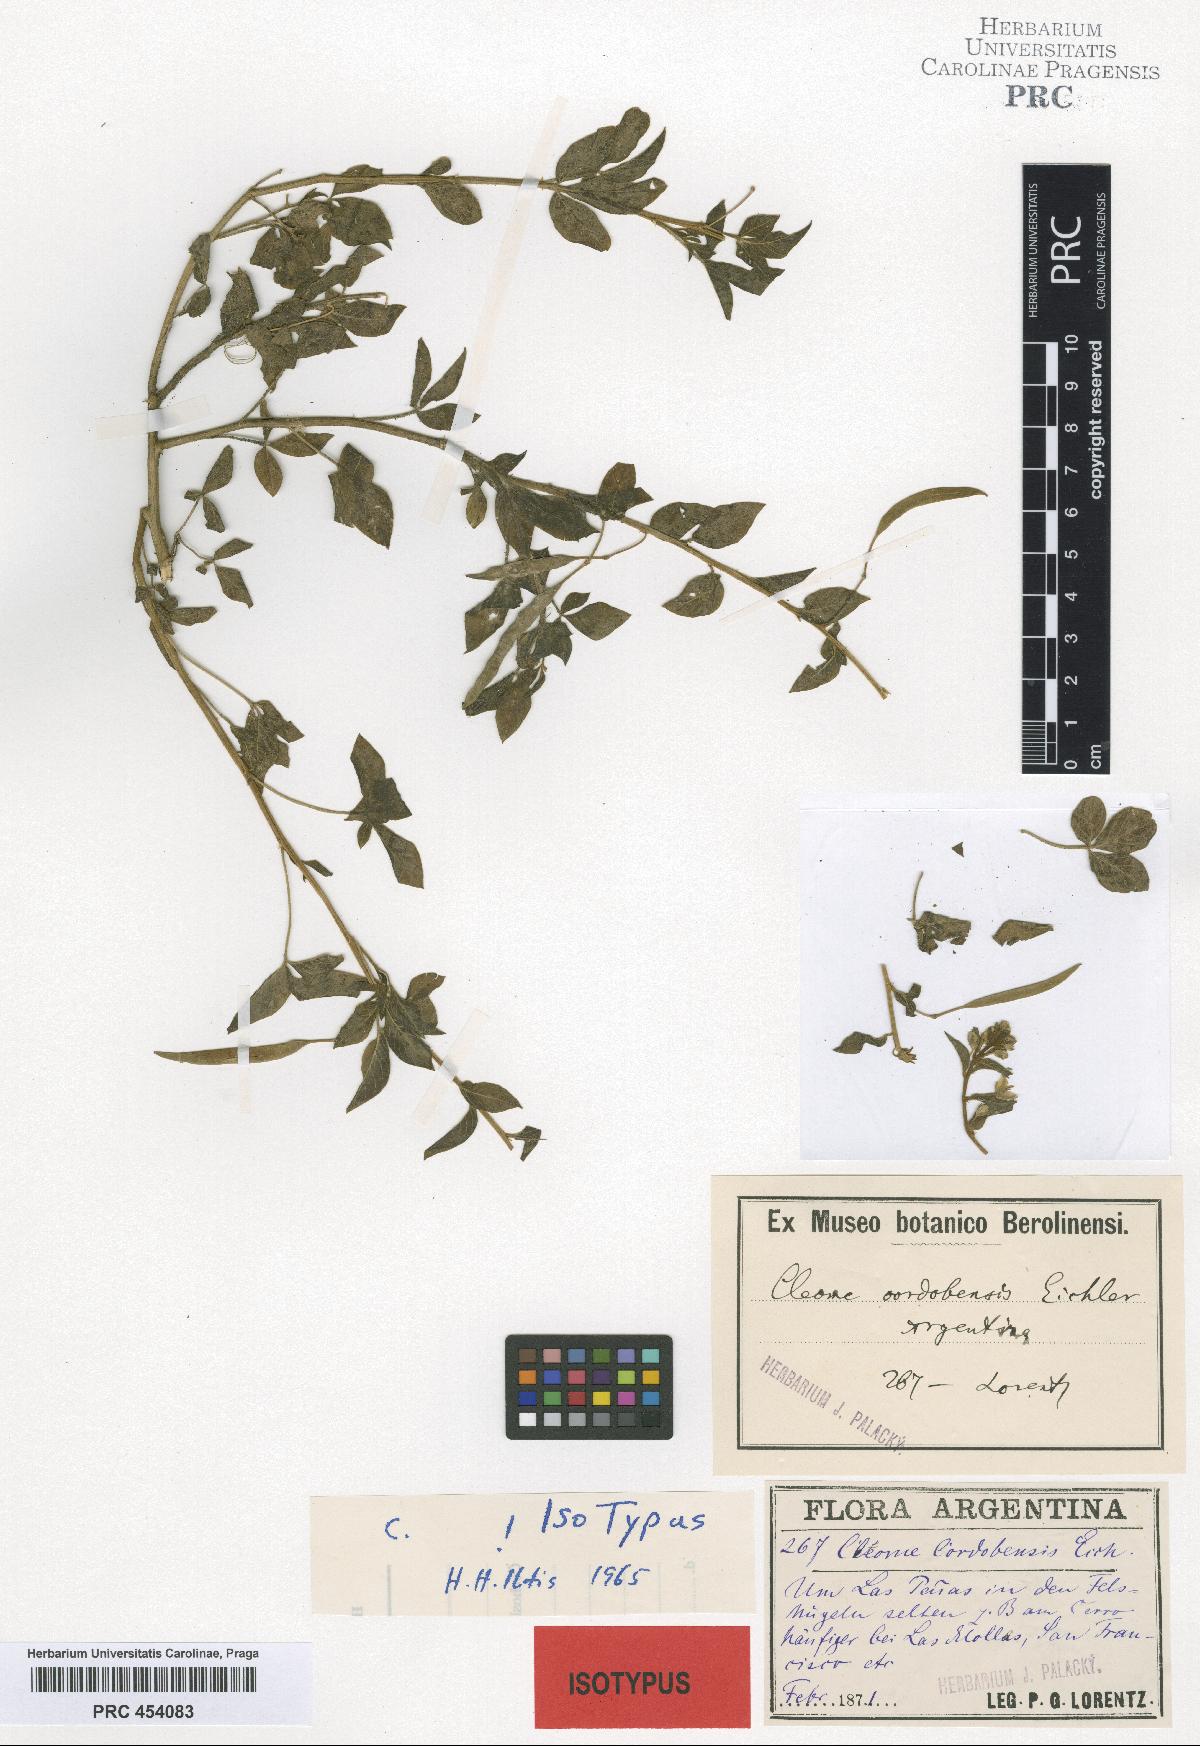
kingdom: Plantae
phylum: Tracheophyta
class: Magnoliopsida
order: Brassicales
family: Cleomaceae
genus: Tarenaya
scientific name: Tarenaya cordobensis
